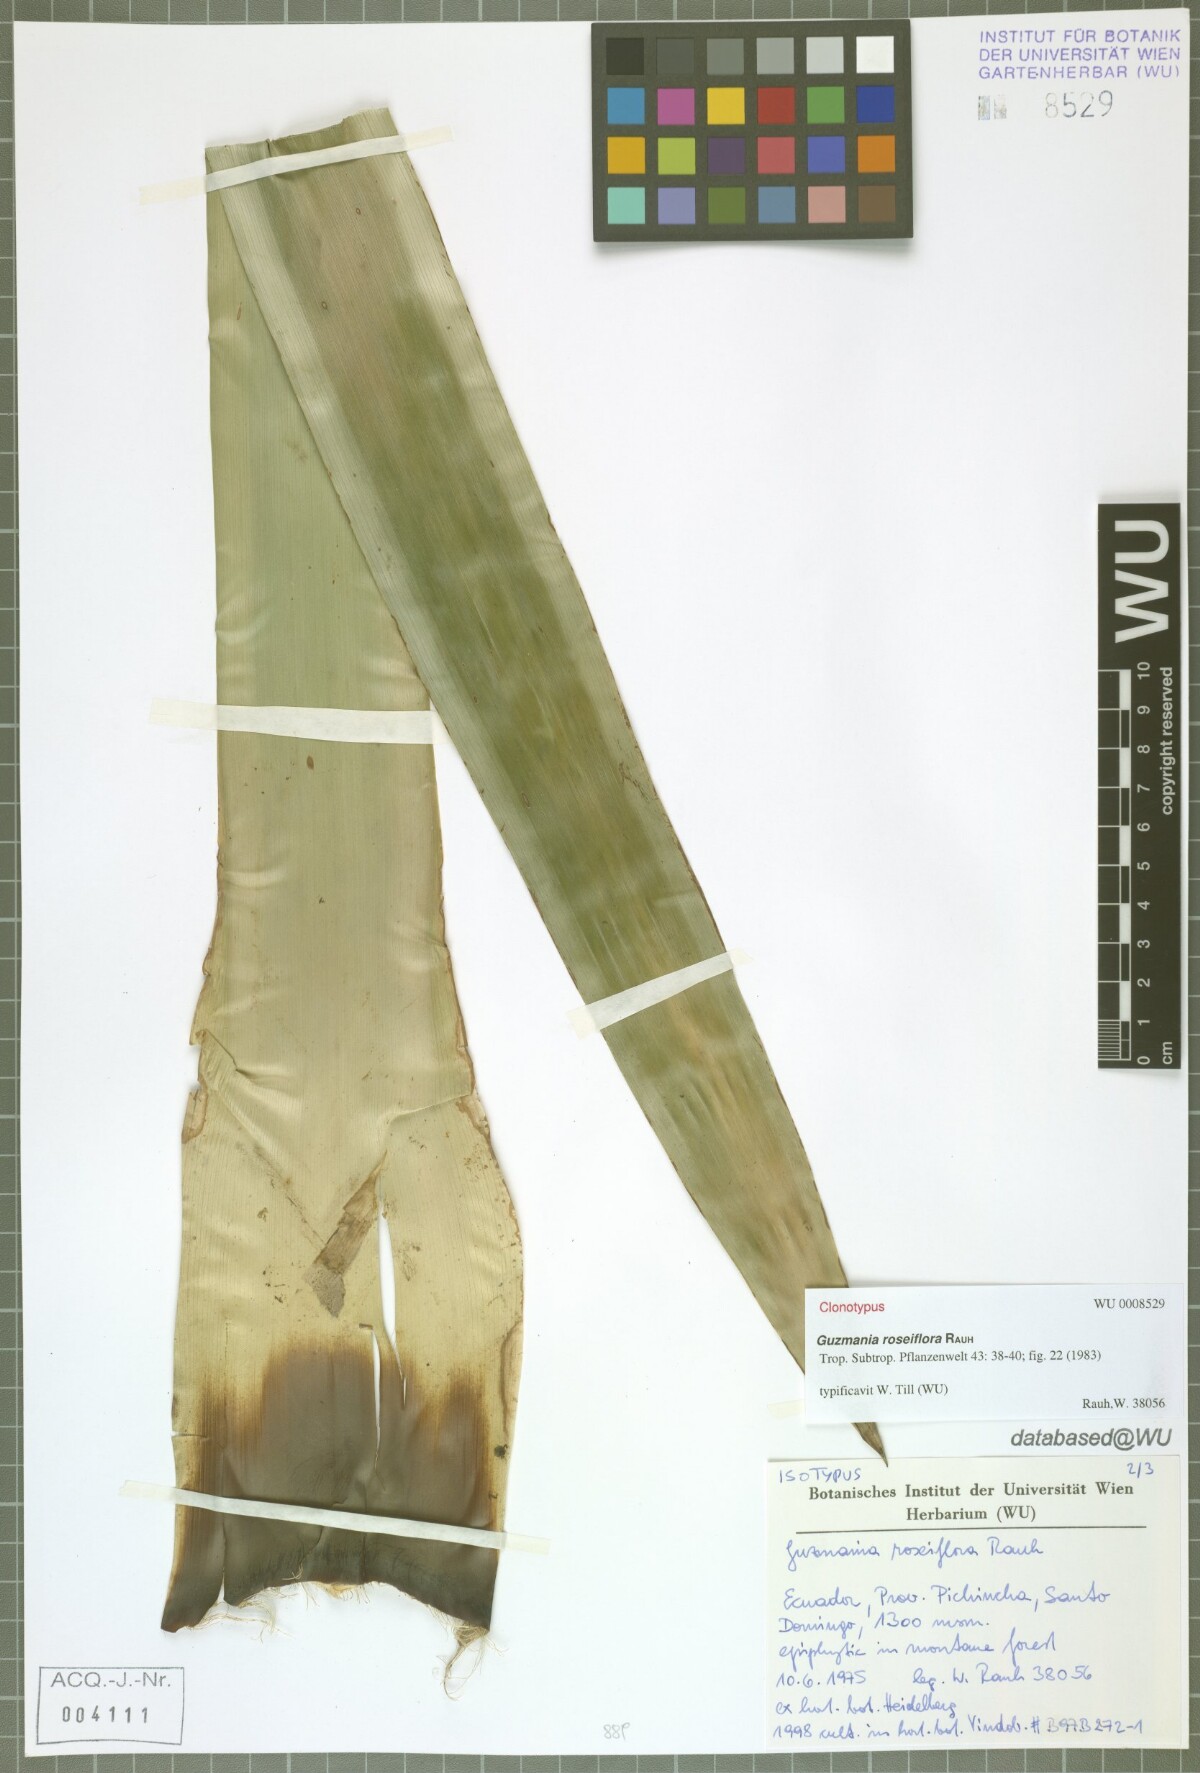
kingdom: Plantae
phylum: Tracheophyta
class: Liliopsida
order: Poales
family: Bromeliaceae
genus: Guzmania
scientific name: Guzmania roseiflora
